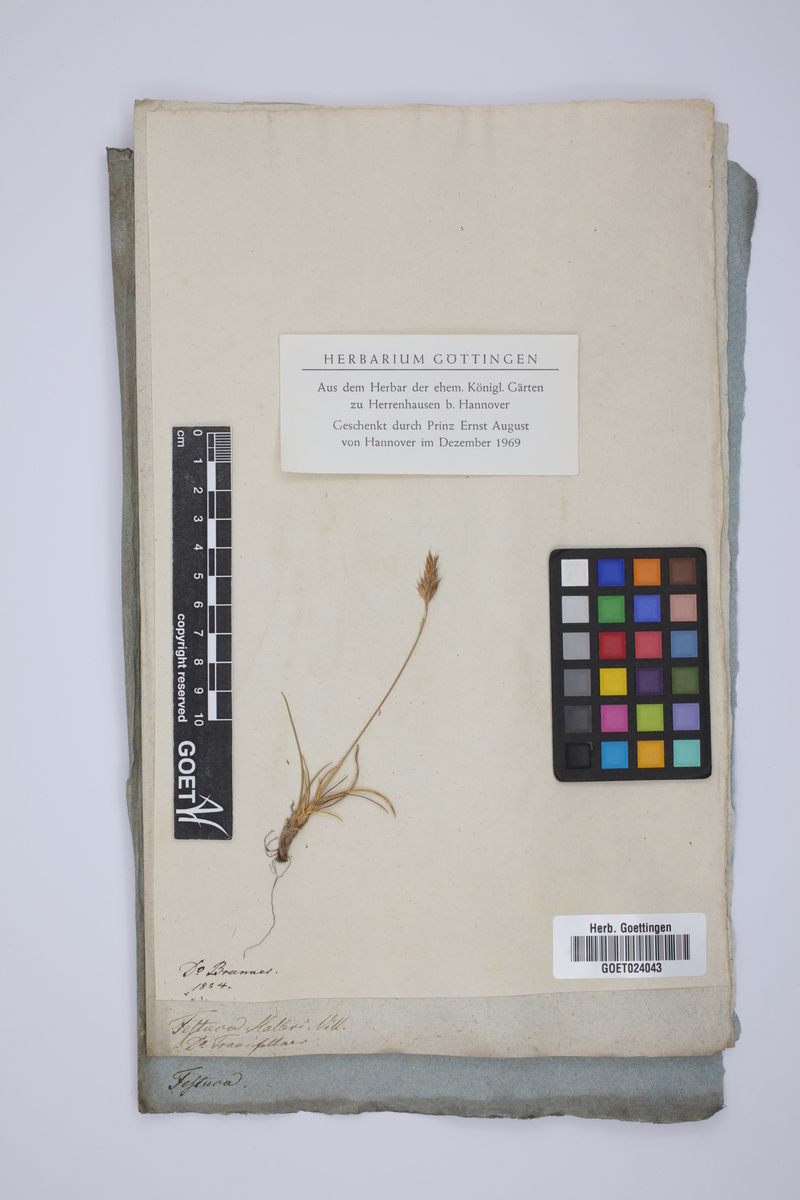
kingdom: Plantae
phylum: Tracheophyta
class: Liliopsida
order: Poales
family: Poaceae
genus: Festuca
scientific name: Festuca halleri
